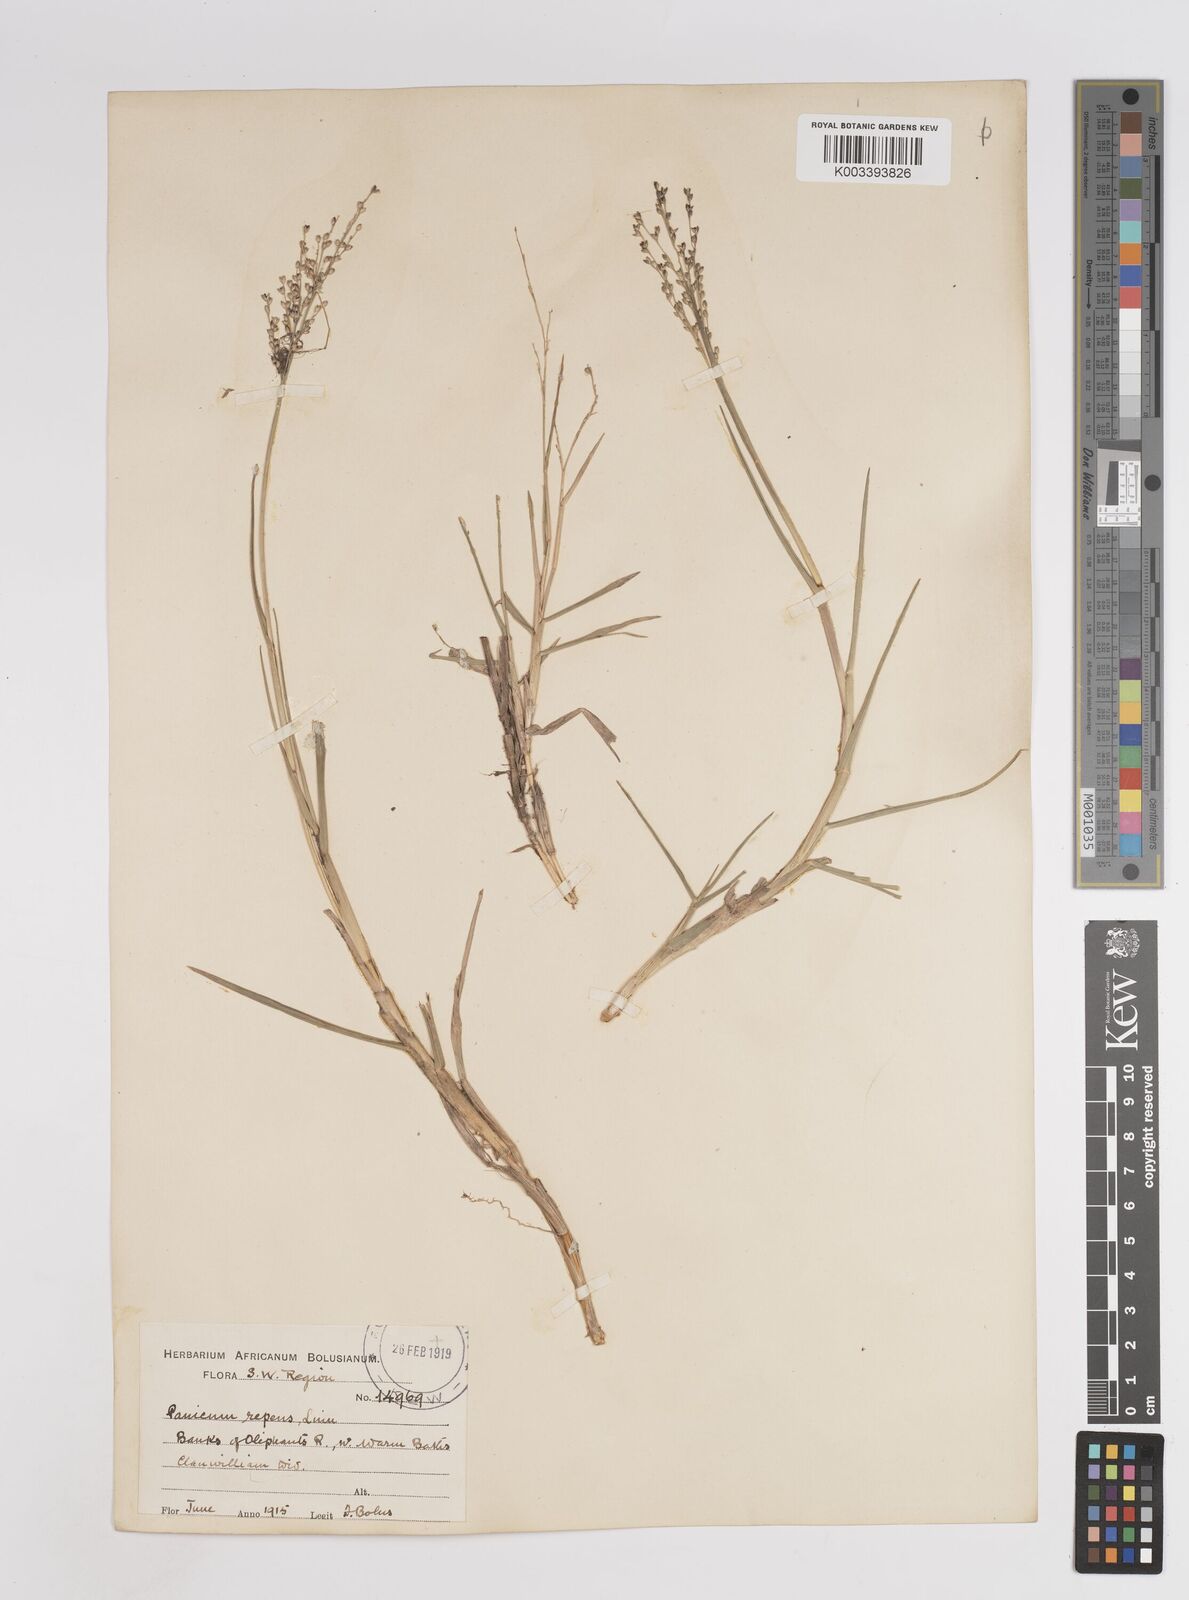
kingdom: Plantae
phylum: Tracheophyta
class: Liliopsida
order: Poales
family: Poaceae
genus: Panicum
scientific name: Panicum repens
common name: Torpedo grass
